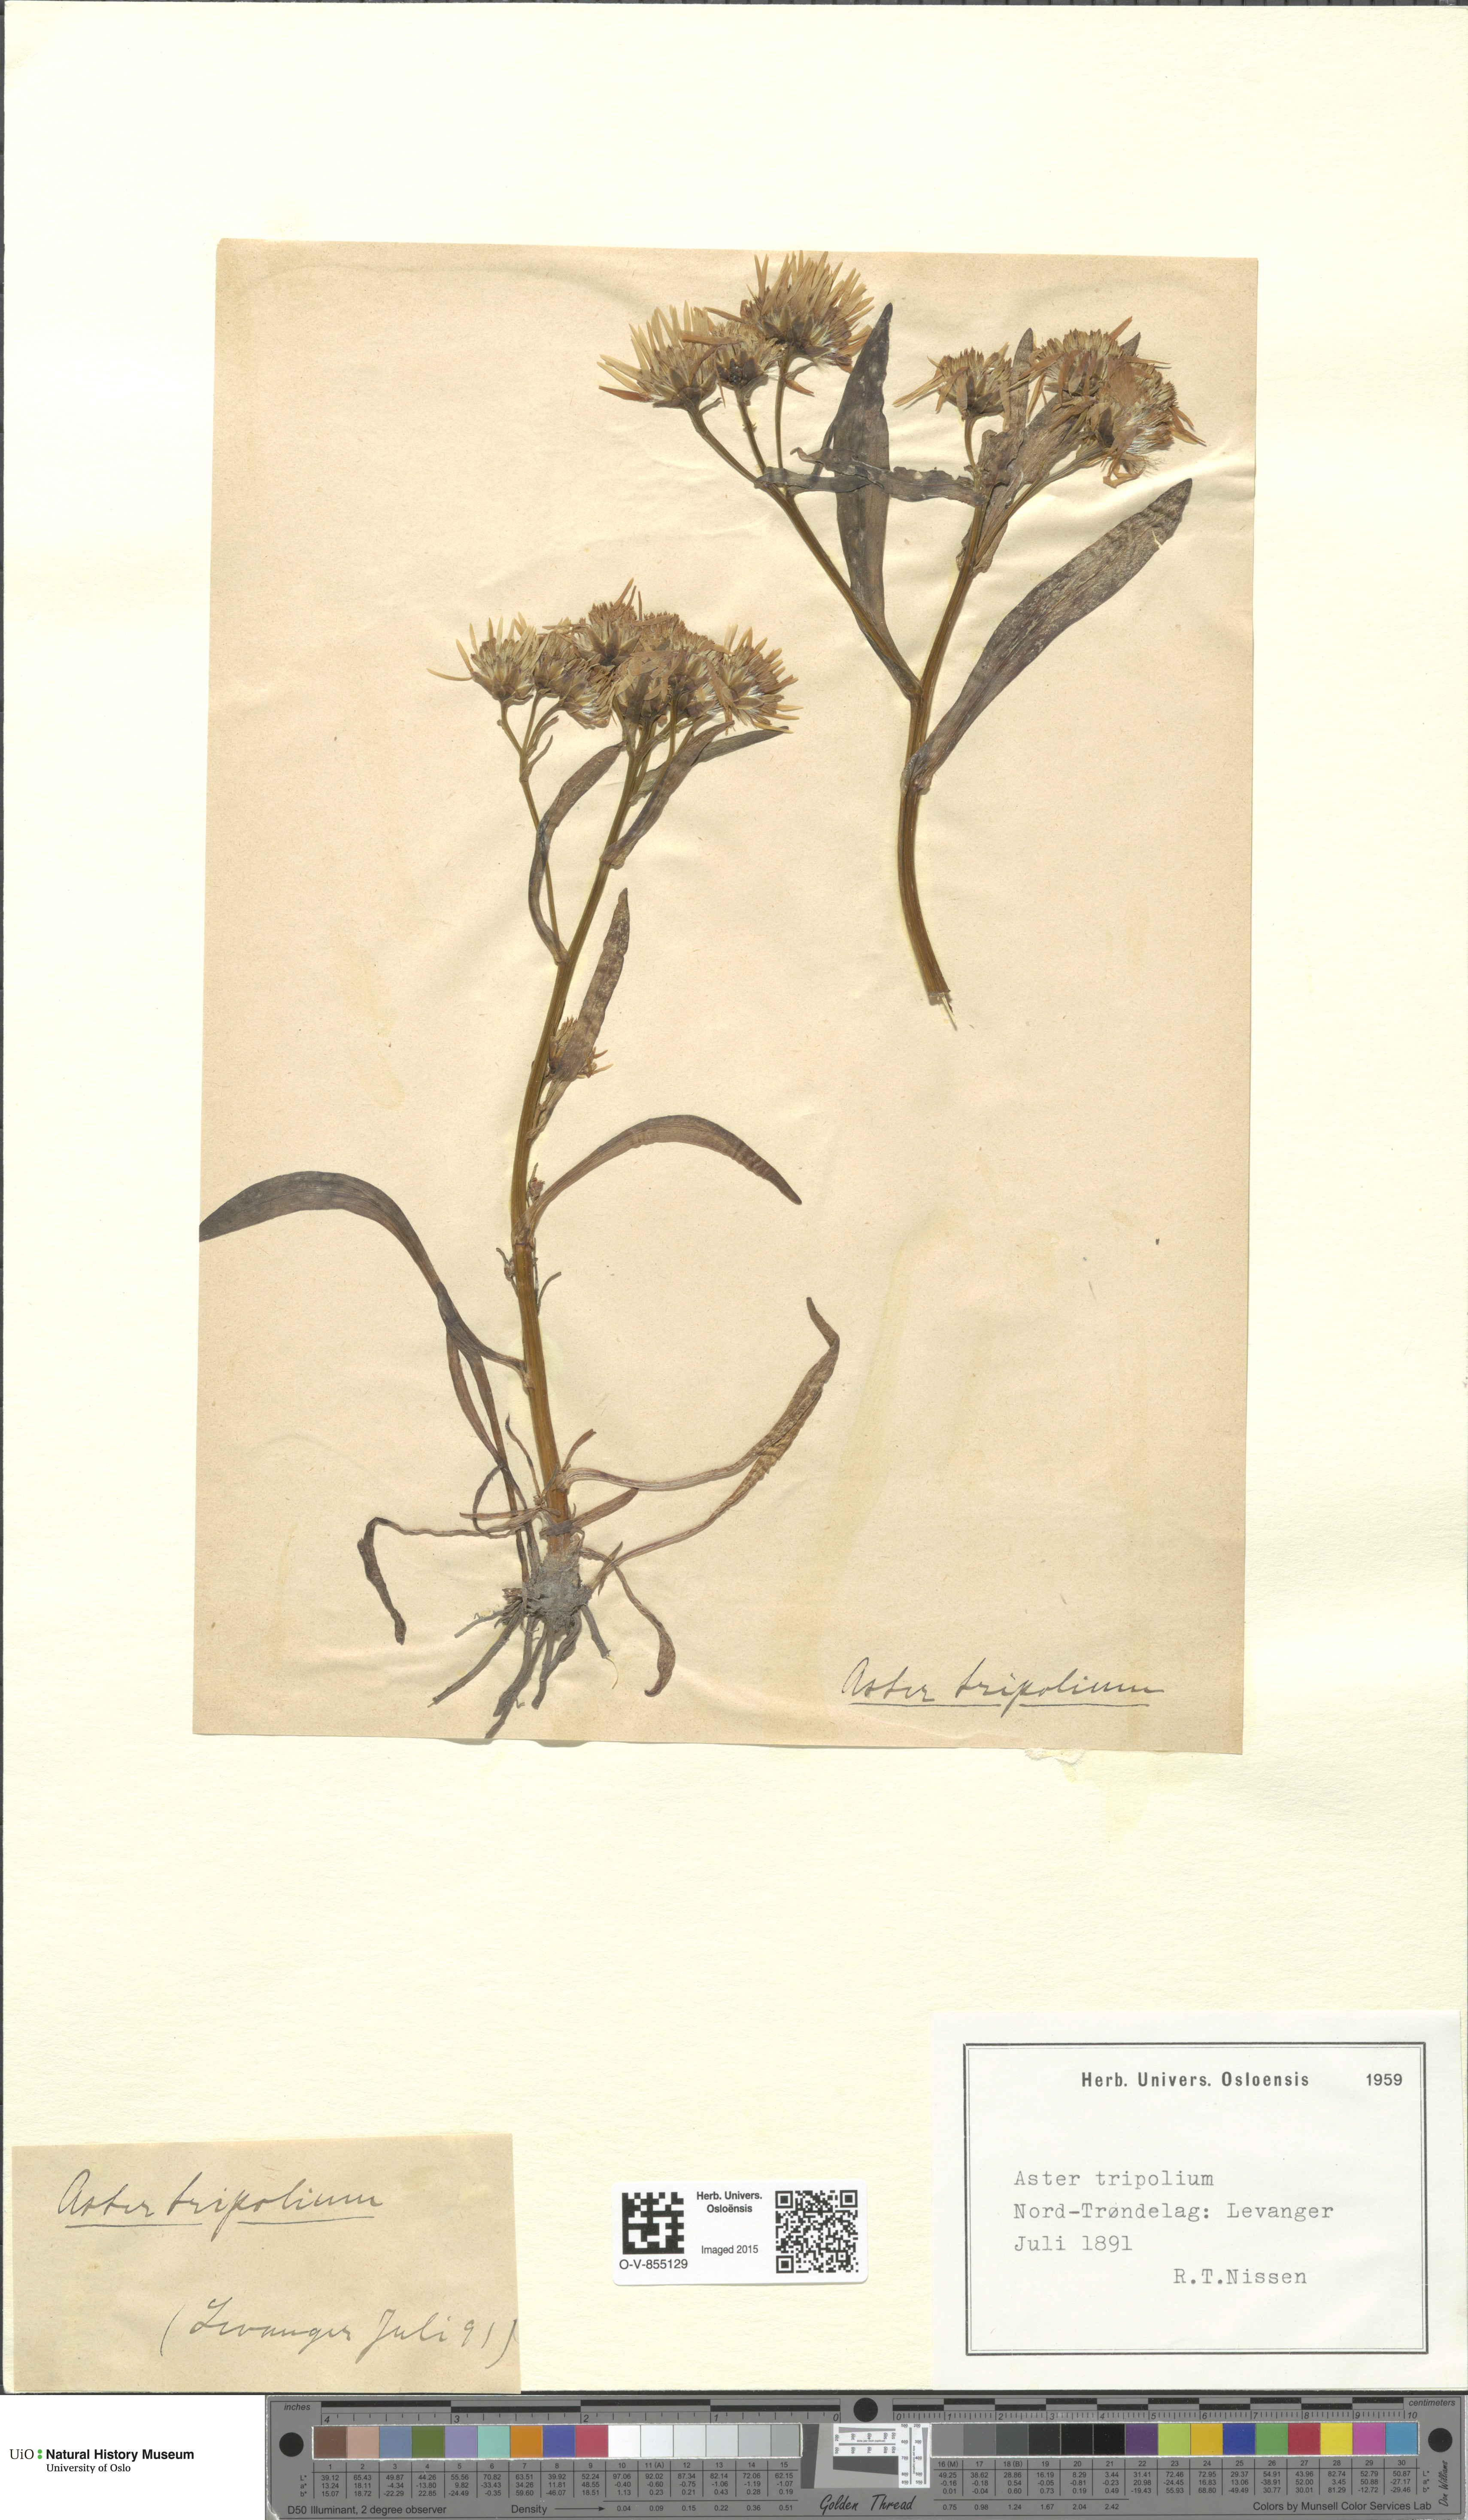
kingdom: Plantae
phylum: Tracheophyta
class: Magnoliopsida
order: Asterales
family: Asteraceae
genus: Tripolium
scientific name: Tripolium pannonicum
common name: Sea aster
